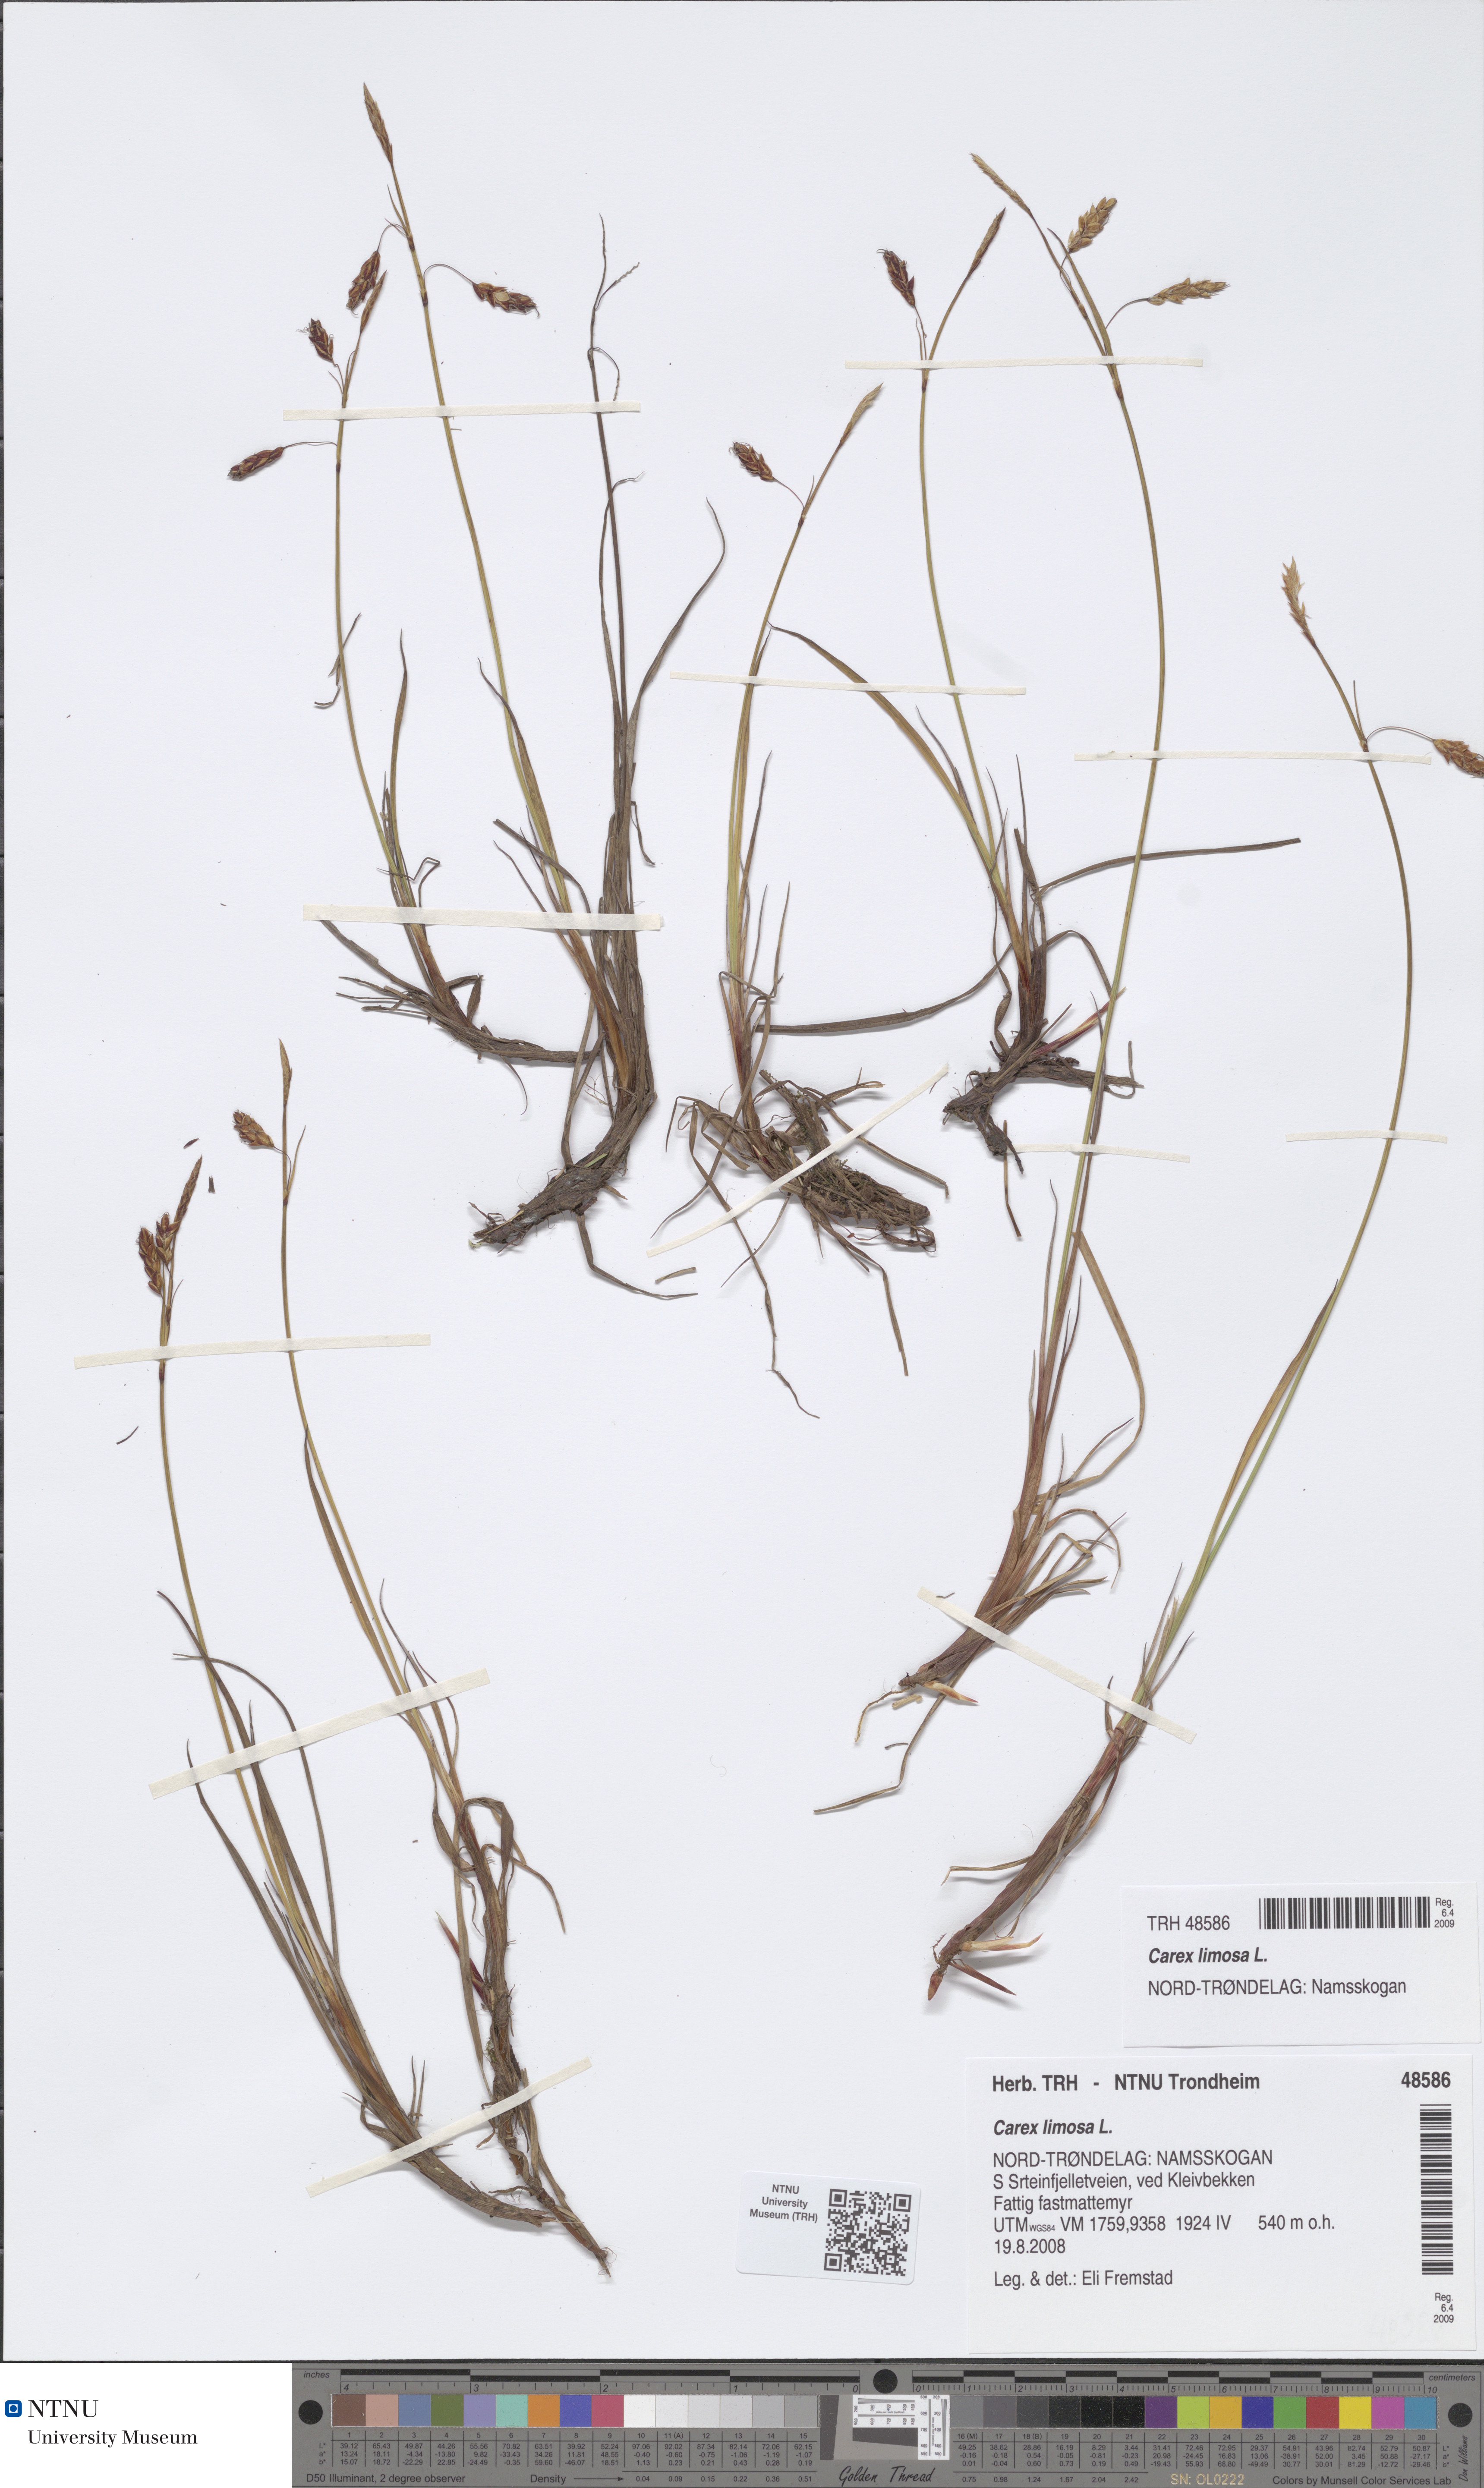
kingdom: Plantae
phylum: Tracheophyta
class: Liliopsida
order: Poales
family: Cyperaceae
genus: Carex
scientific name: Carex limosa
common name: Bog sedge
